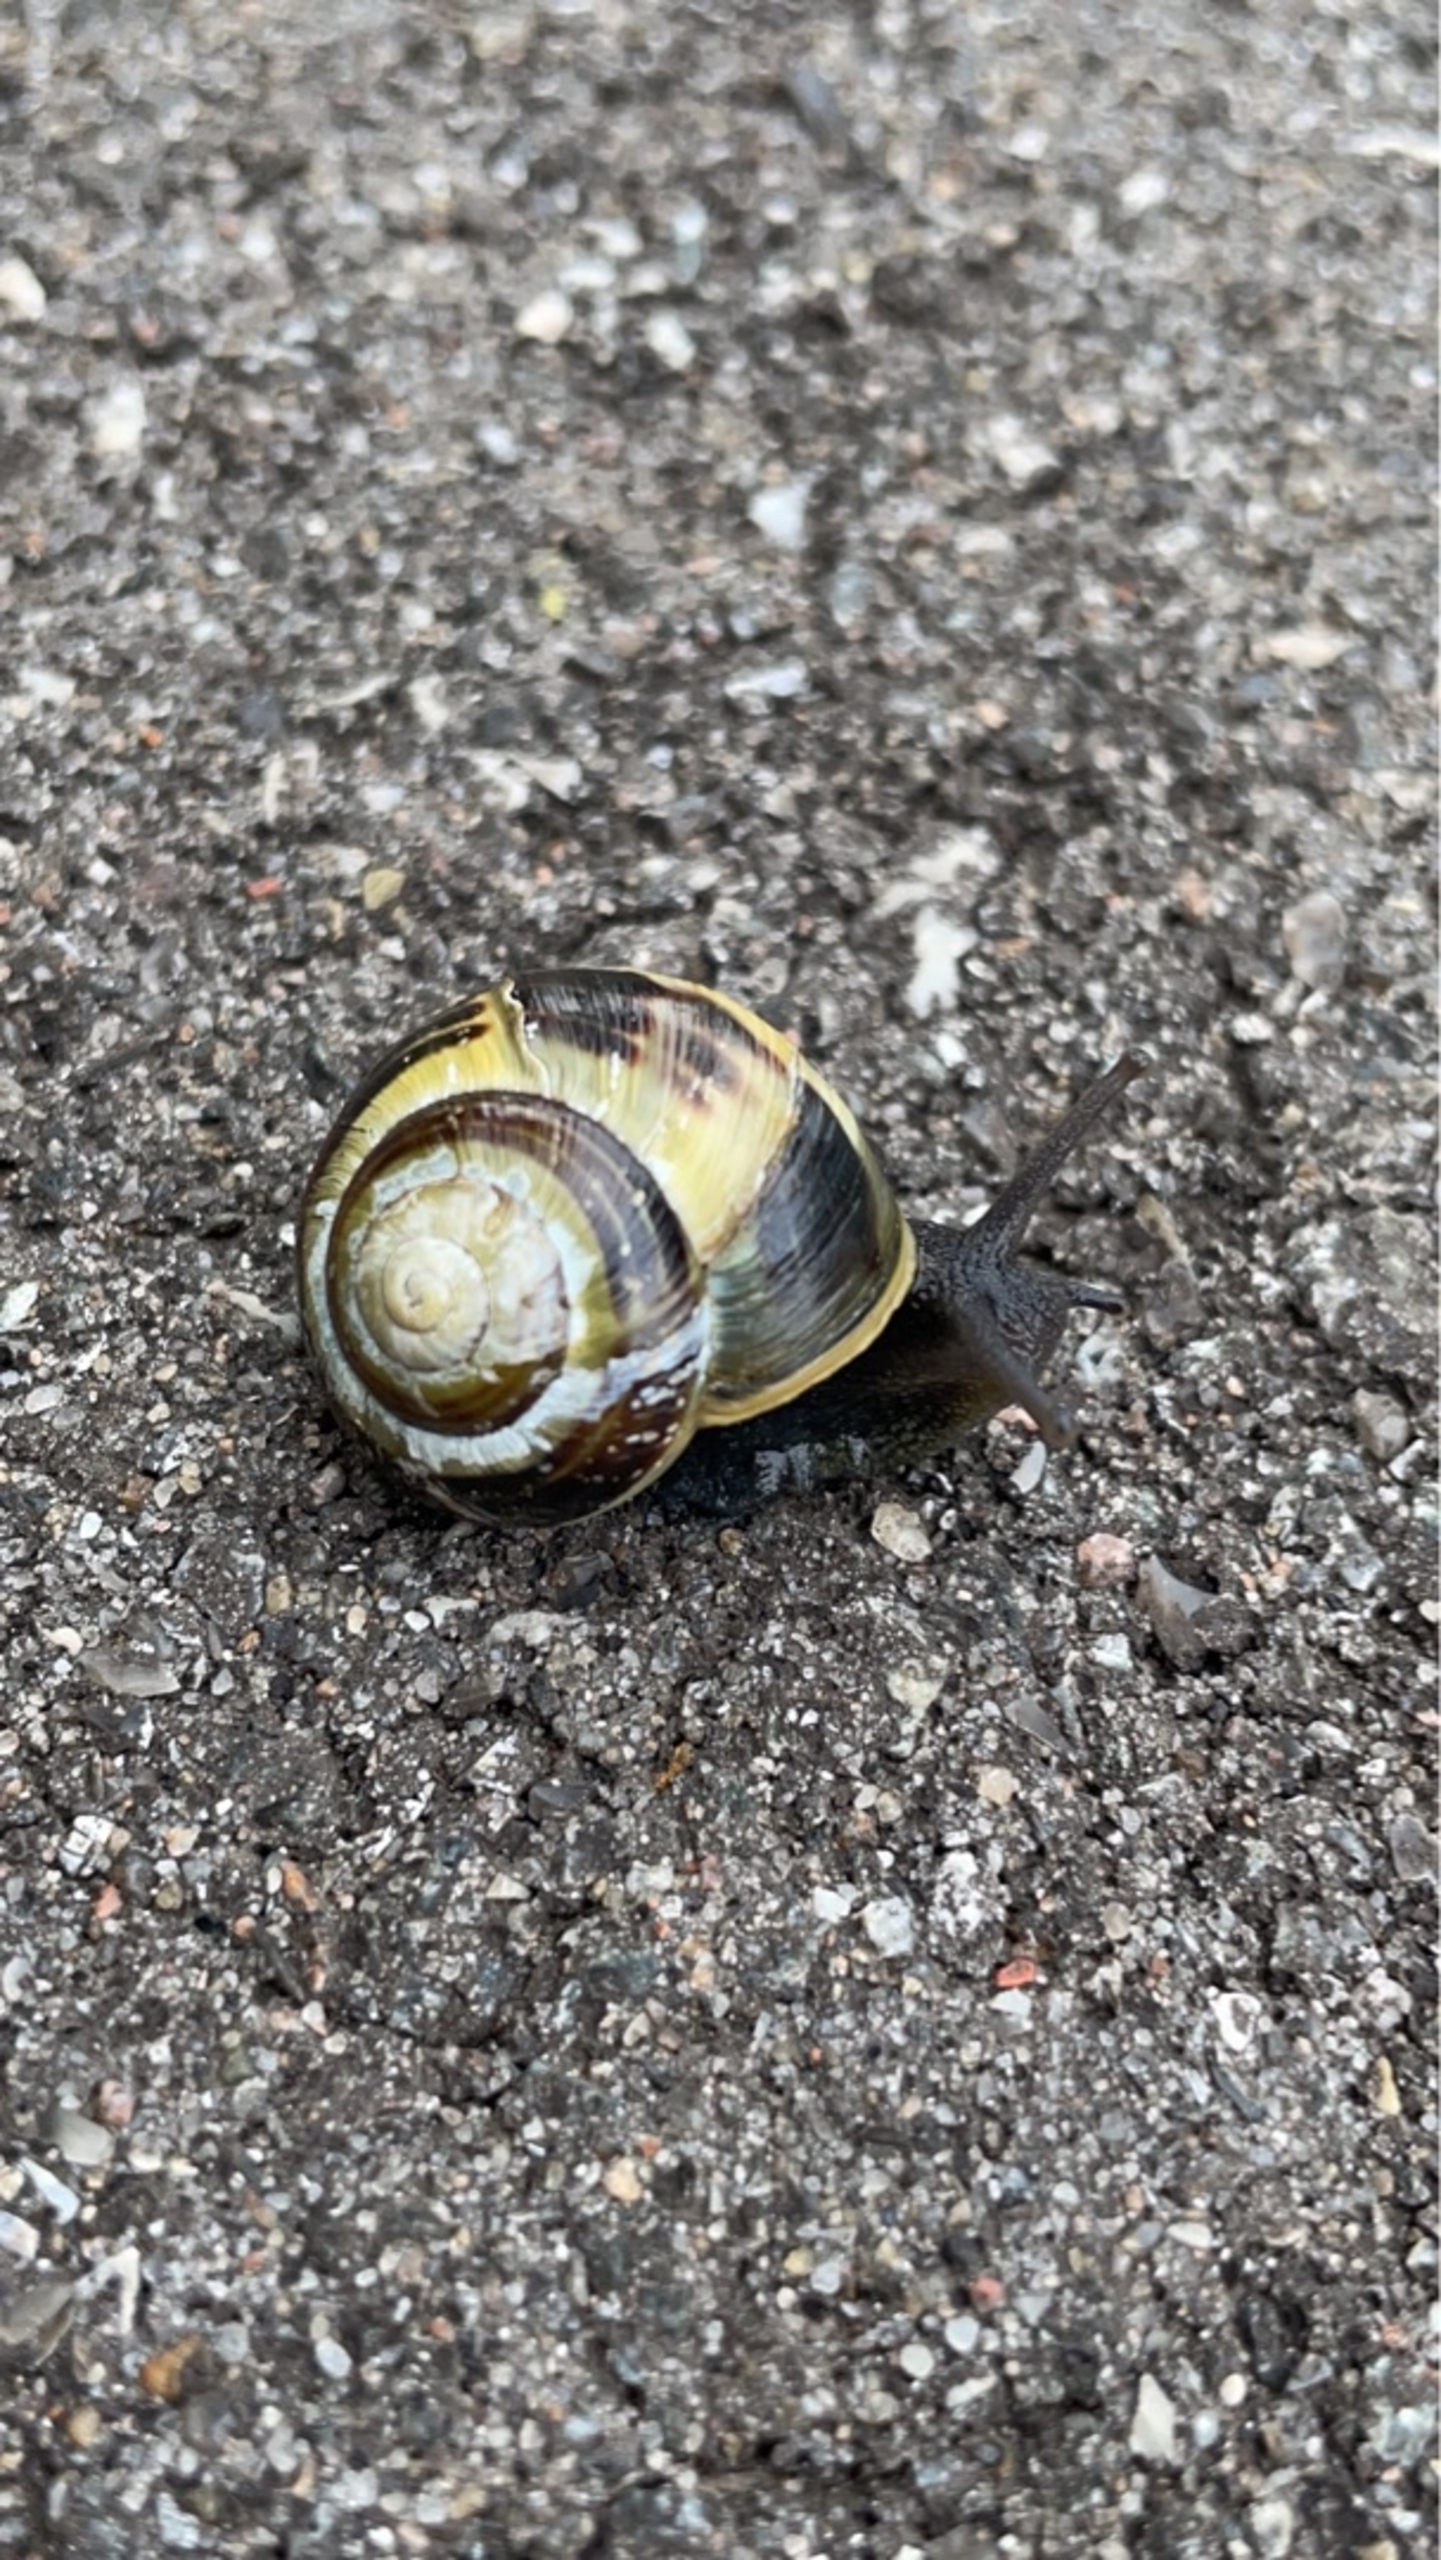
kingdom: Animalia
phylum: Mollusca
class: Gastropoda
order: Stylommatophora
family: Helicidae
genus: Cepaea
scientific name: Cepaea hortensis
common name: Havesnegl
